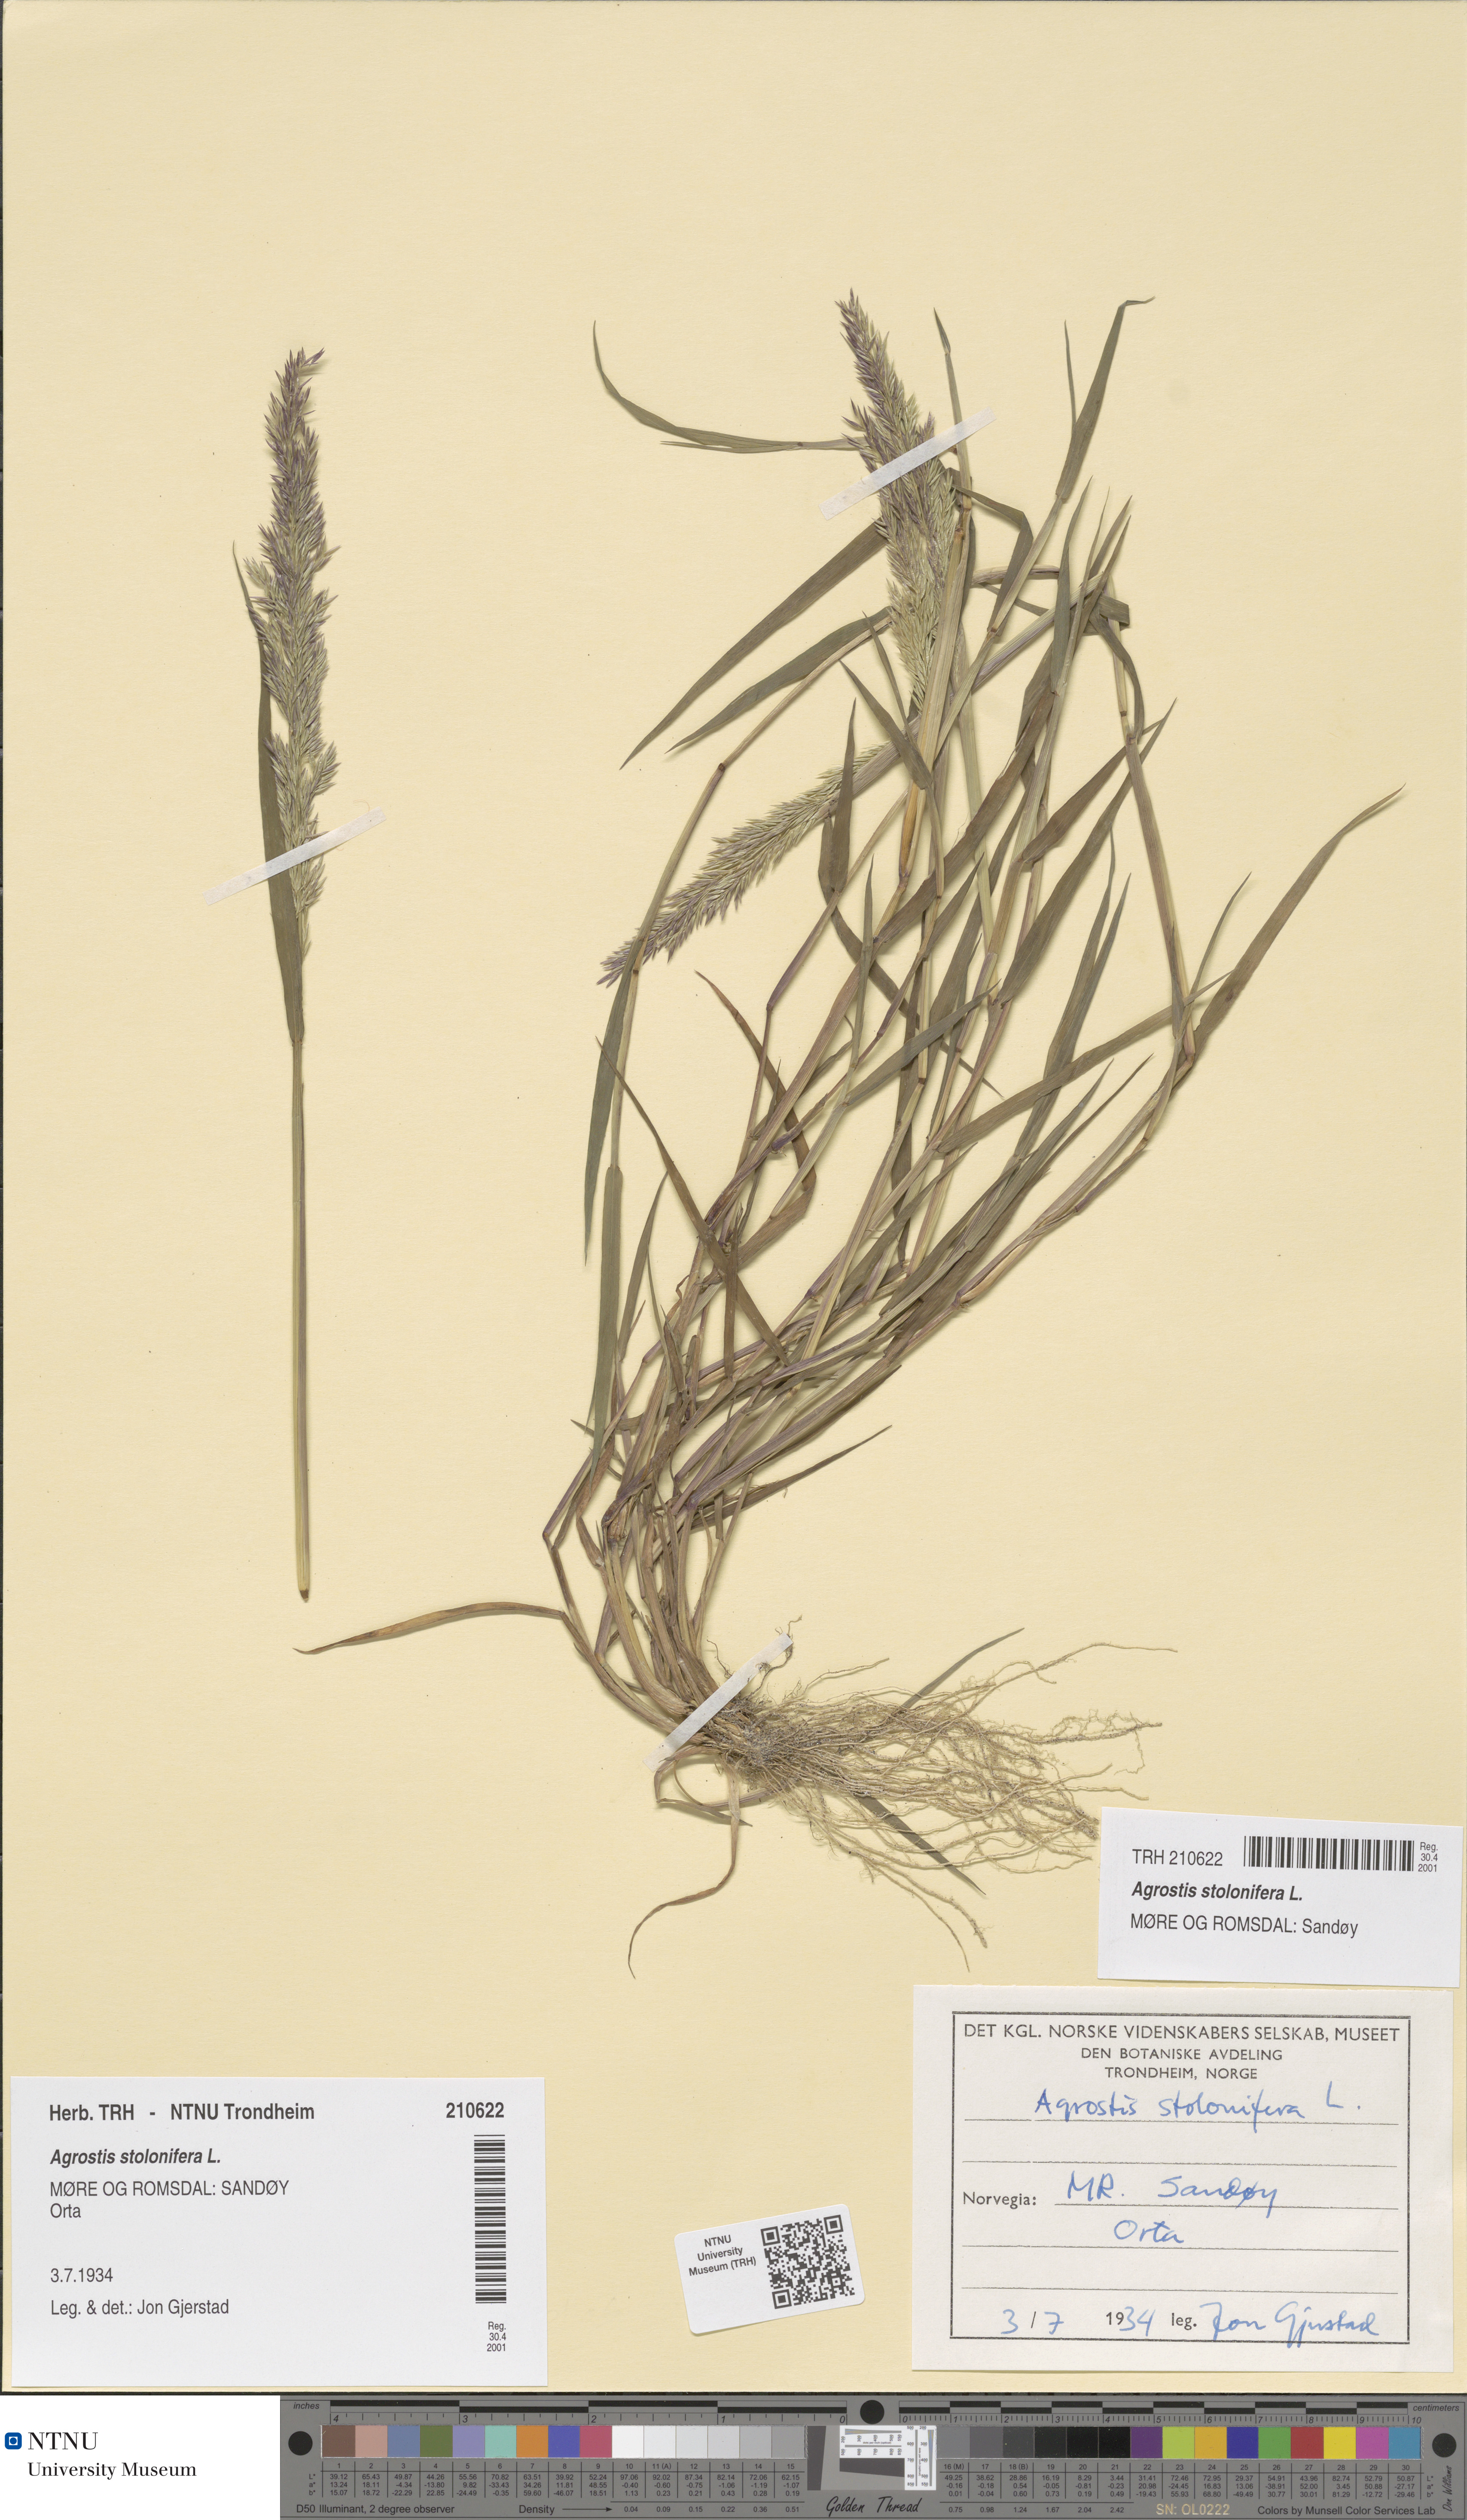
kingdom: Plantae
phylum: Tracheophyta
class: Liliopsida
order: Poales
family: Poaceae
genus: Agrostis
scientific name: Agrostis stolonifera
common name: Creeping bentgrass
